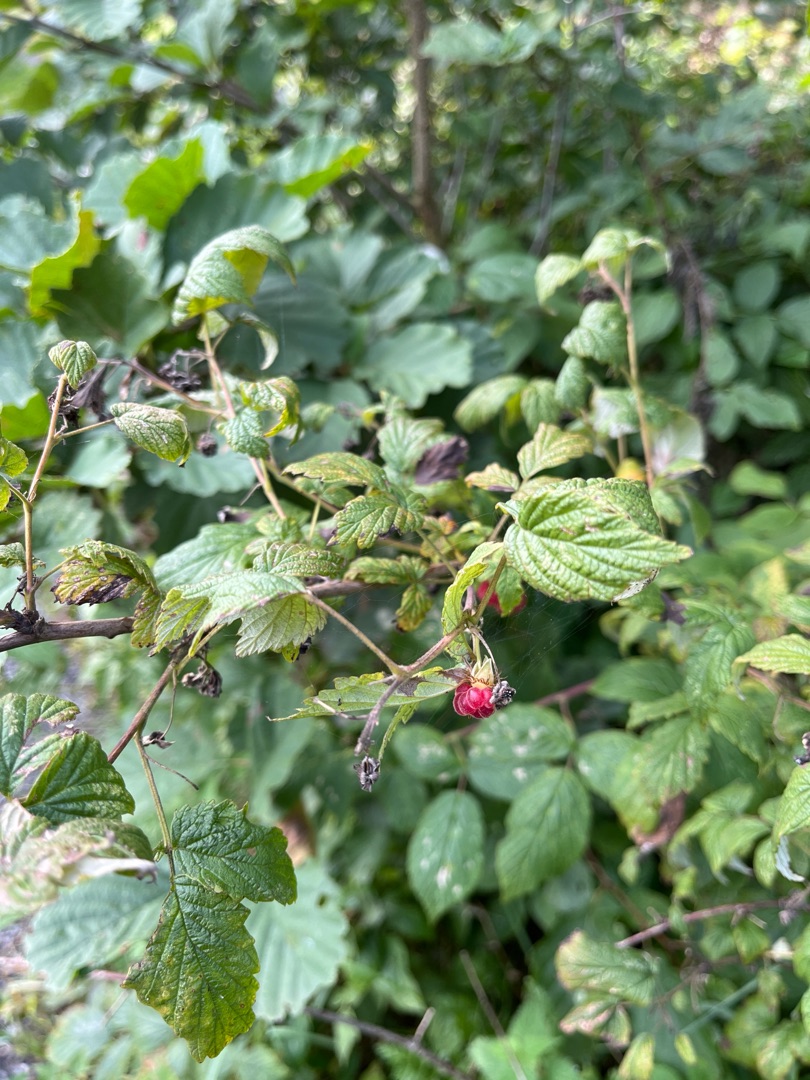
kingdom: Plantae
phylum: Tracheophyta
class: Magnoliopsida
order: Rosales
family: Rosaceae
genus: Rubus
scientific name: Rubus idaeus
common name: Hindbær
